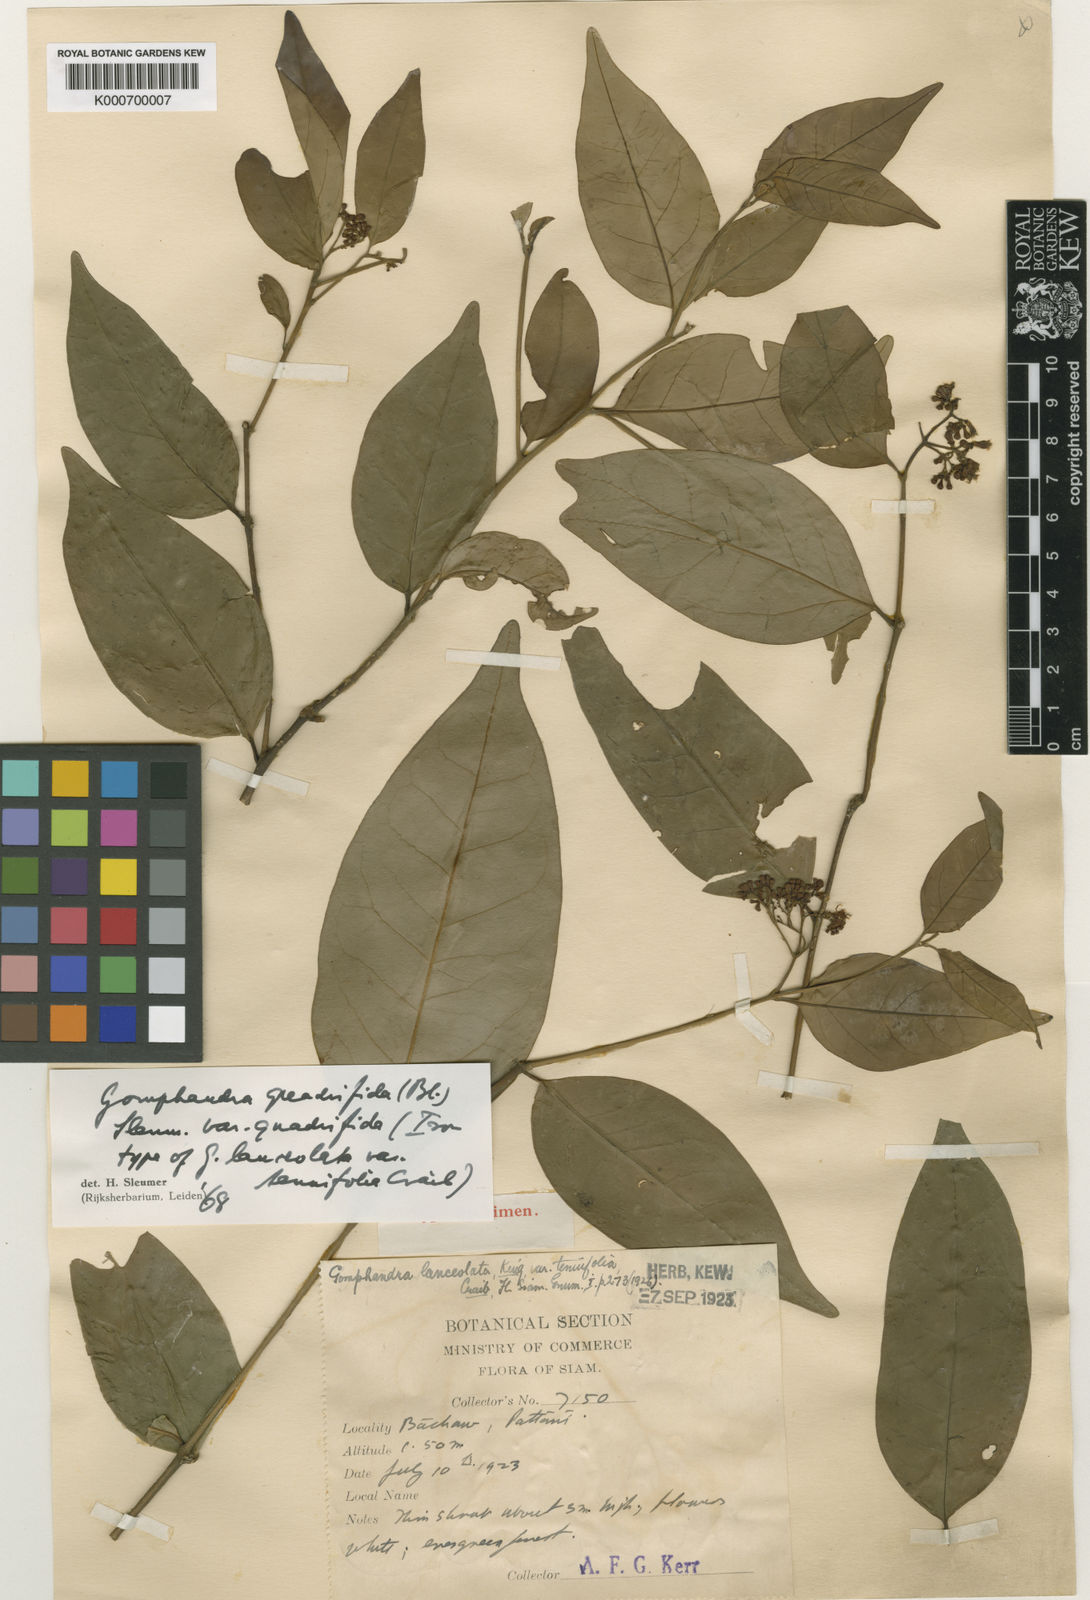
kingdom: Plantae
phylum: Tracheophyta
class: Magnoliopsida
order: Cardiopteridales
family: Stemonuraceae
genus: Gomphandra
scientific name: Gomphandra quadrifida
